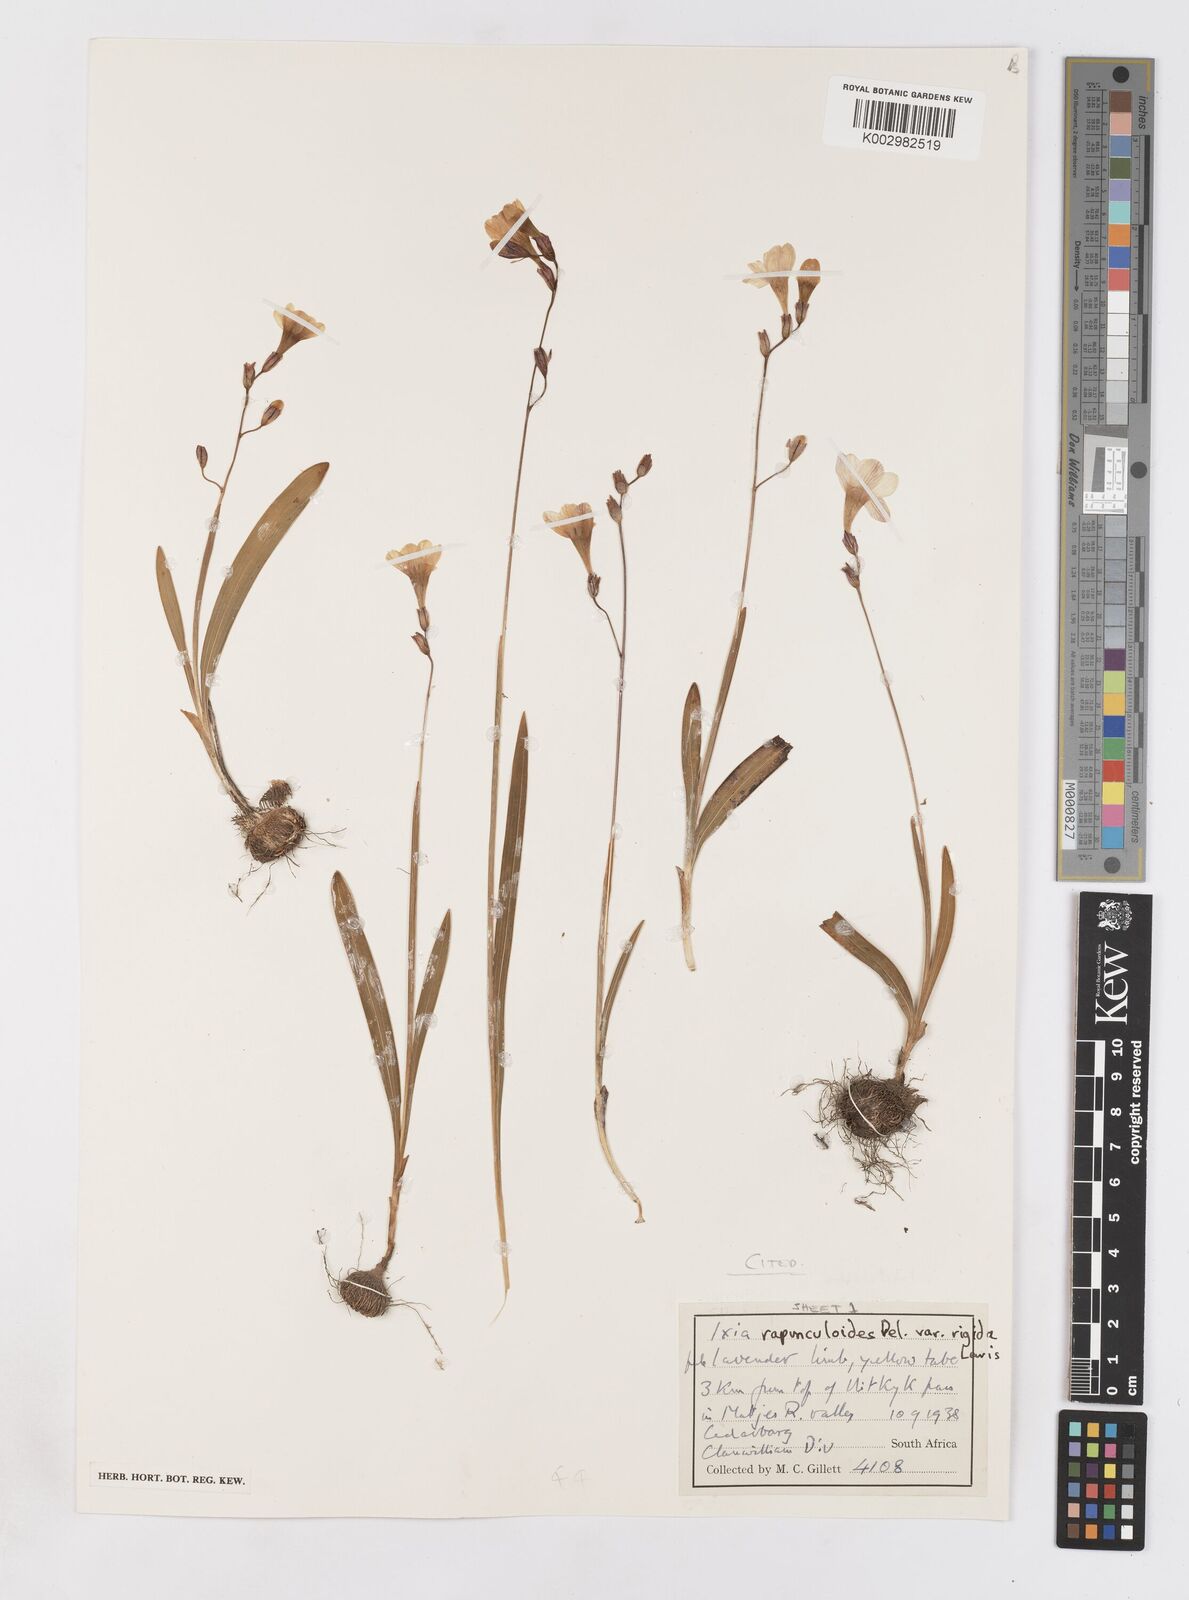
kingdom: Plantae
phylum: Tracheophyta
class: Liliopsida
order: Asparagales
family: Iridaceae
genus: Ixia
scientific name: Ixia rapunculoides
